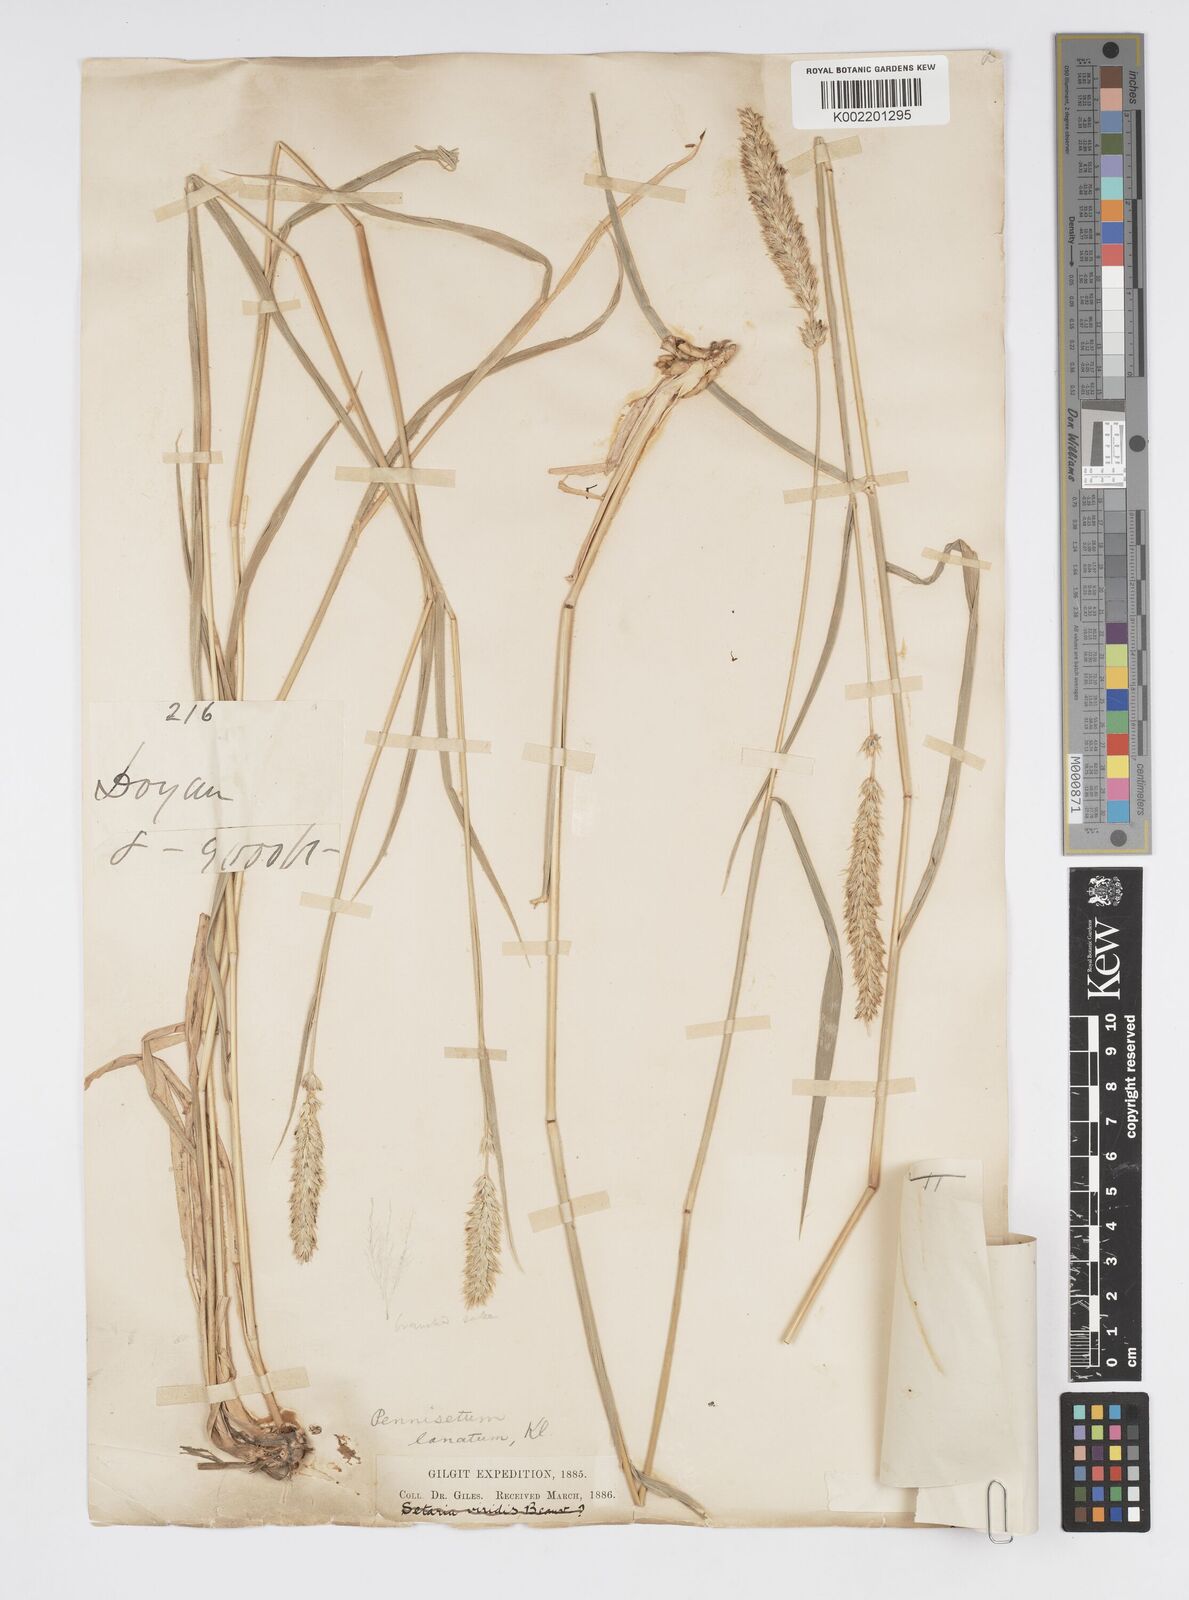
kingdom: Plantae
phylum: Tracheophyta
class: Liliopsida
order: Poales
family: Poaceae
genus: Cenchrus
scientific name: Cenchrus lanatus
